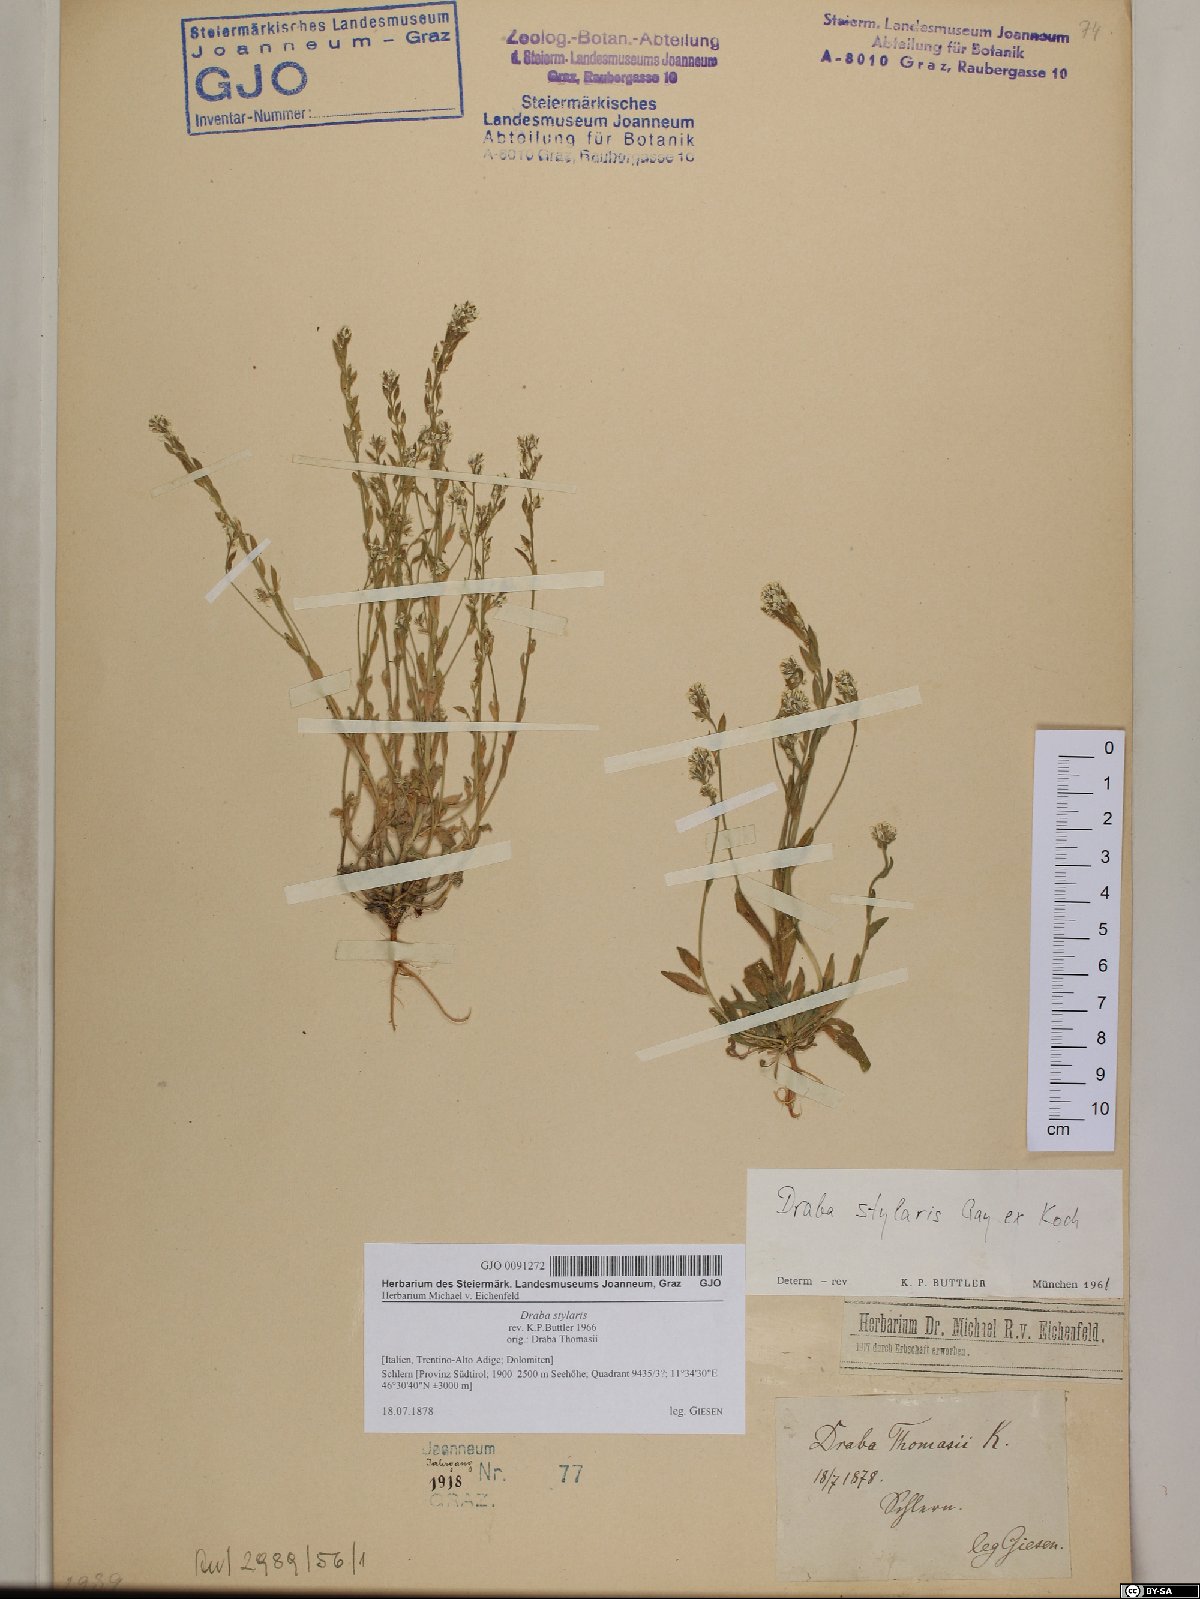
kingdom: Plantae
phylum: Tracheophyta
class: Magnoliopsida
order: Brassicales
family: Brassicaceae
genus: Draba
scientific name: Draba thomasii
